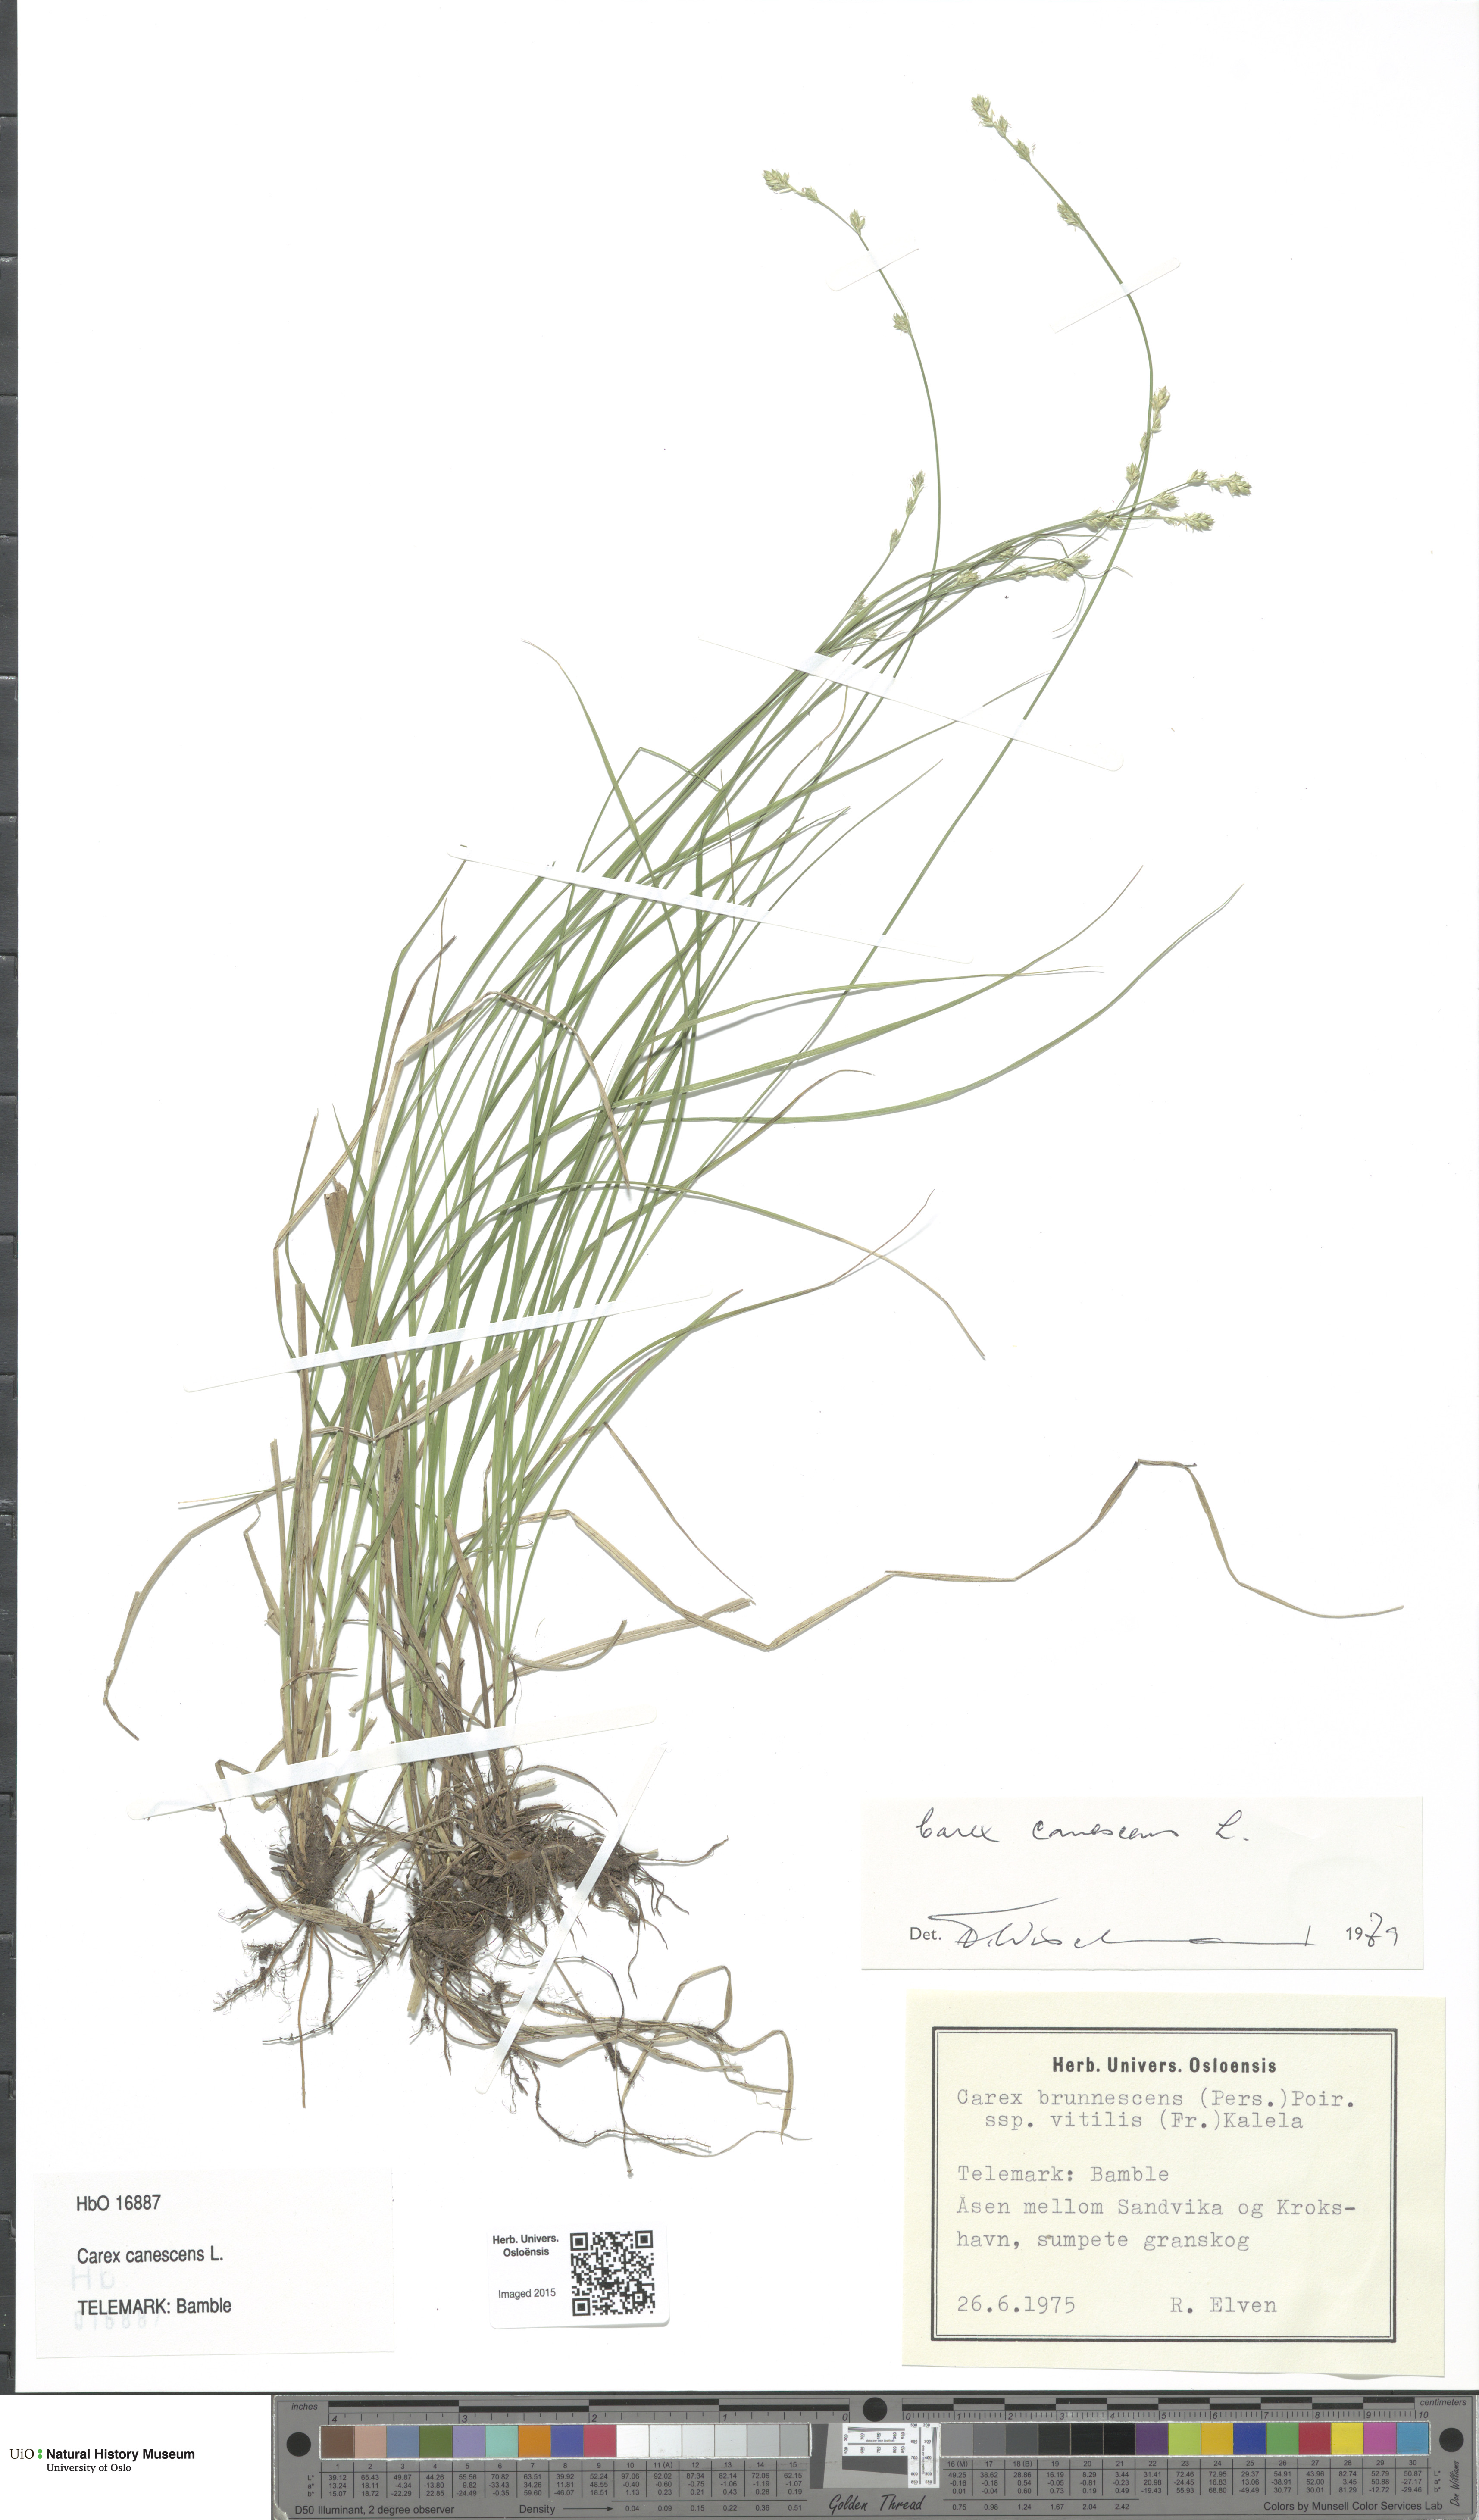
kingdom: Plantae
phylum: Tracheophyta
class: Liliopsida
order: Poales
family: Cyperaceae
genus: Carex
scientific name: Carex canescens
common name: White sedge
